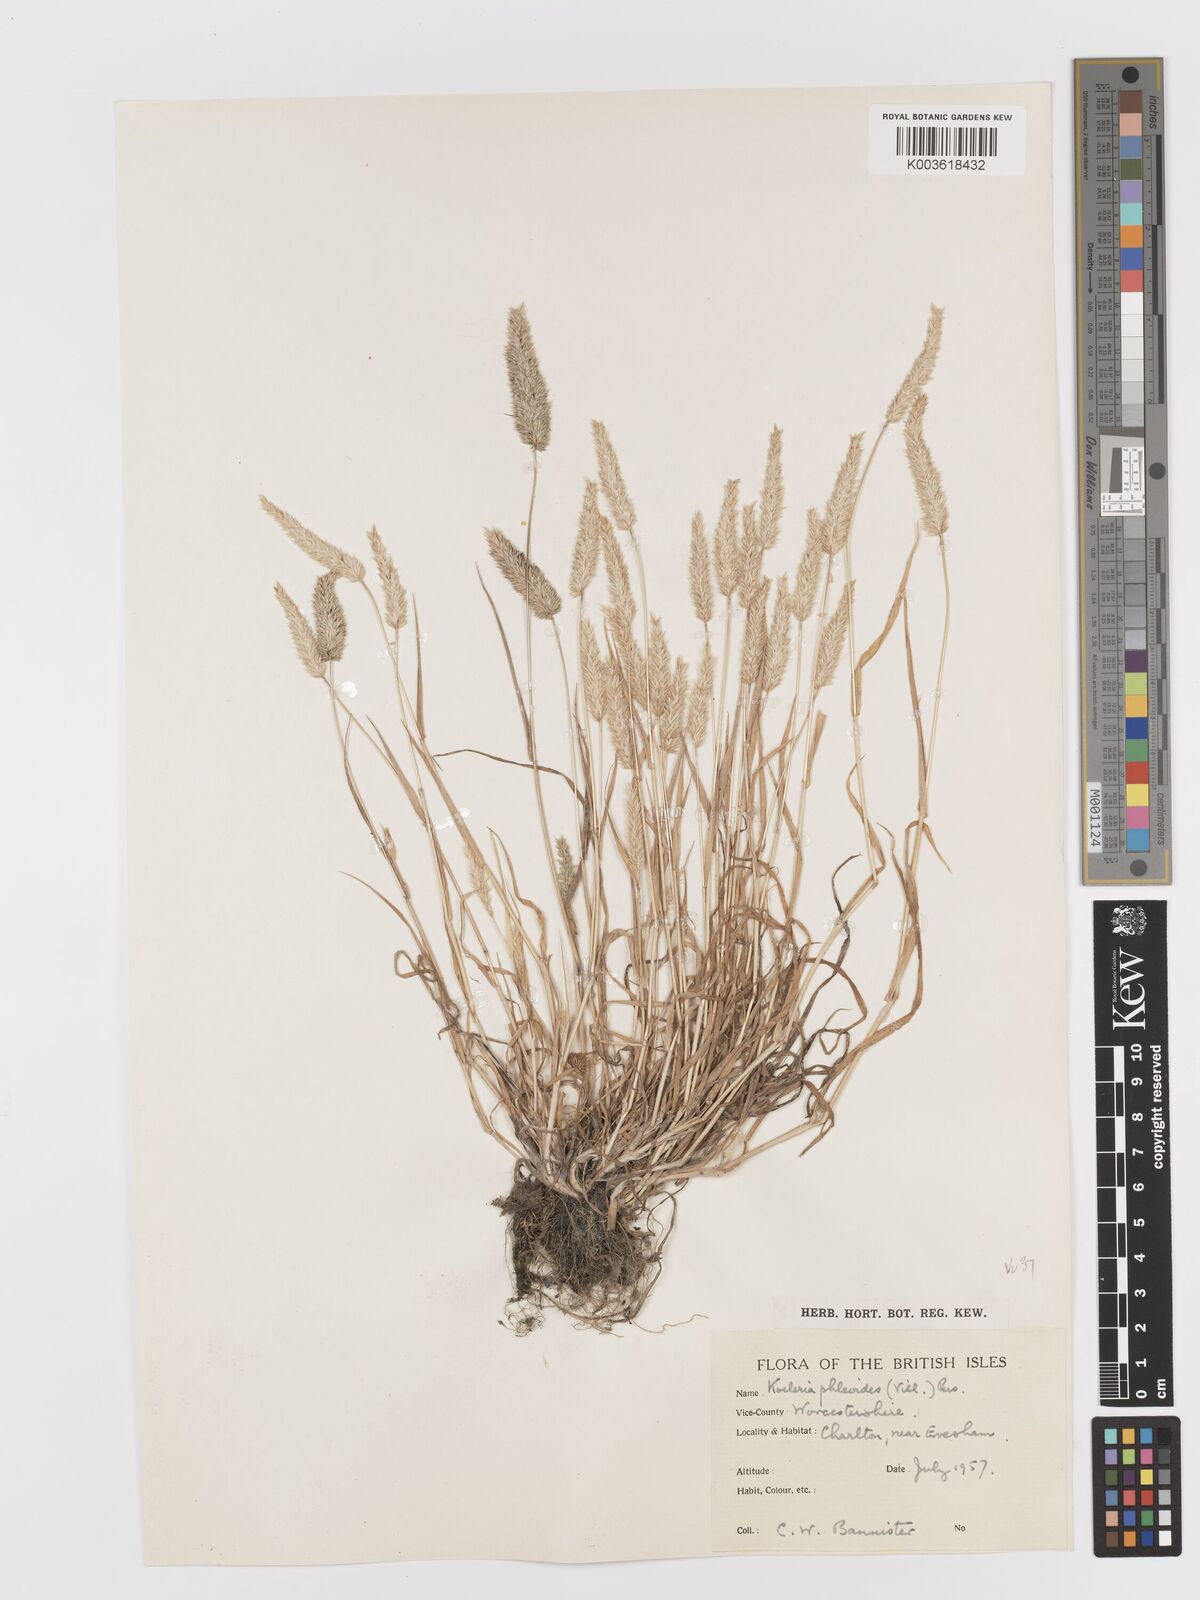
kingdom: Plantae
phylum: Tracheophyta
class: Liliopsida
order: Poales
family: Poaceae
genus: Rostraria
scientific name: Rostraria cristata
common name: Mediterranean hair-grass
